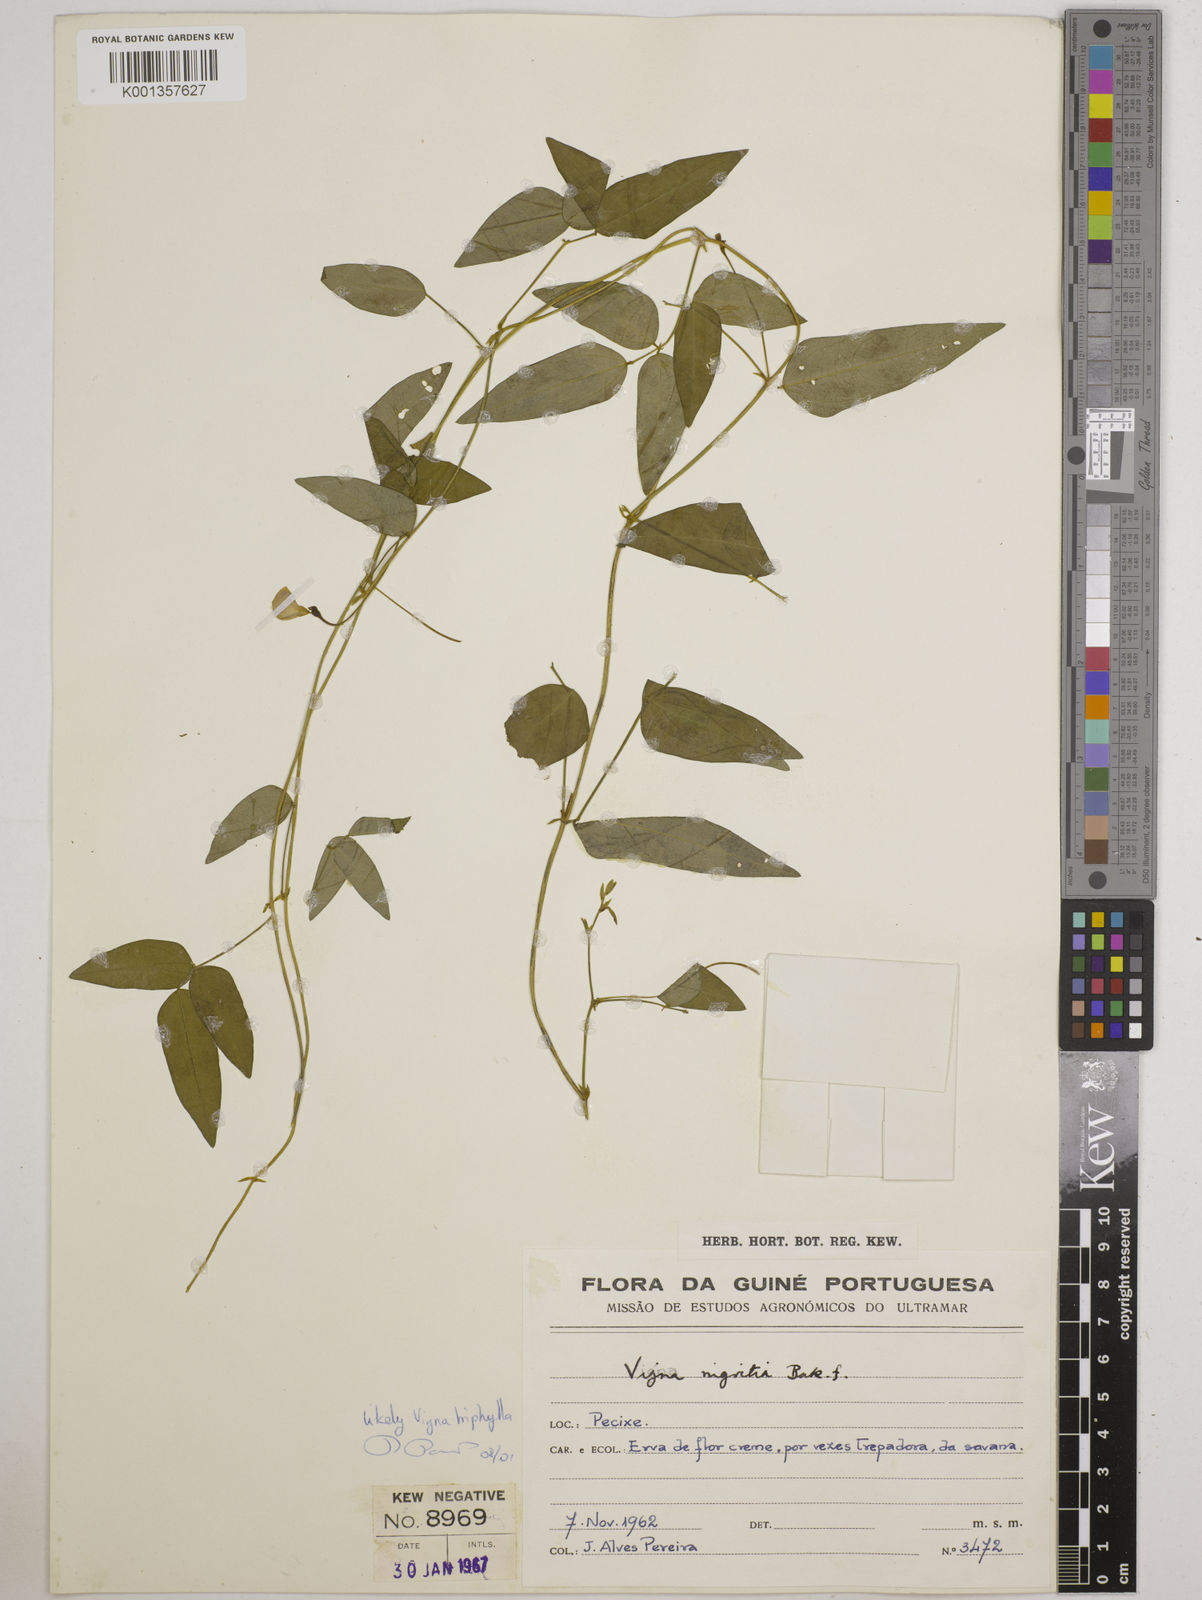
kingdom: Plantae
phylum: Tracheophyta
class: Magnoliopsida
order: Fabales
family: Fabaceae
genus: Vigna
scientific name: Vigna nigritia
